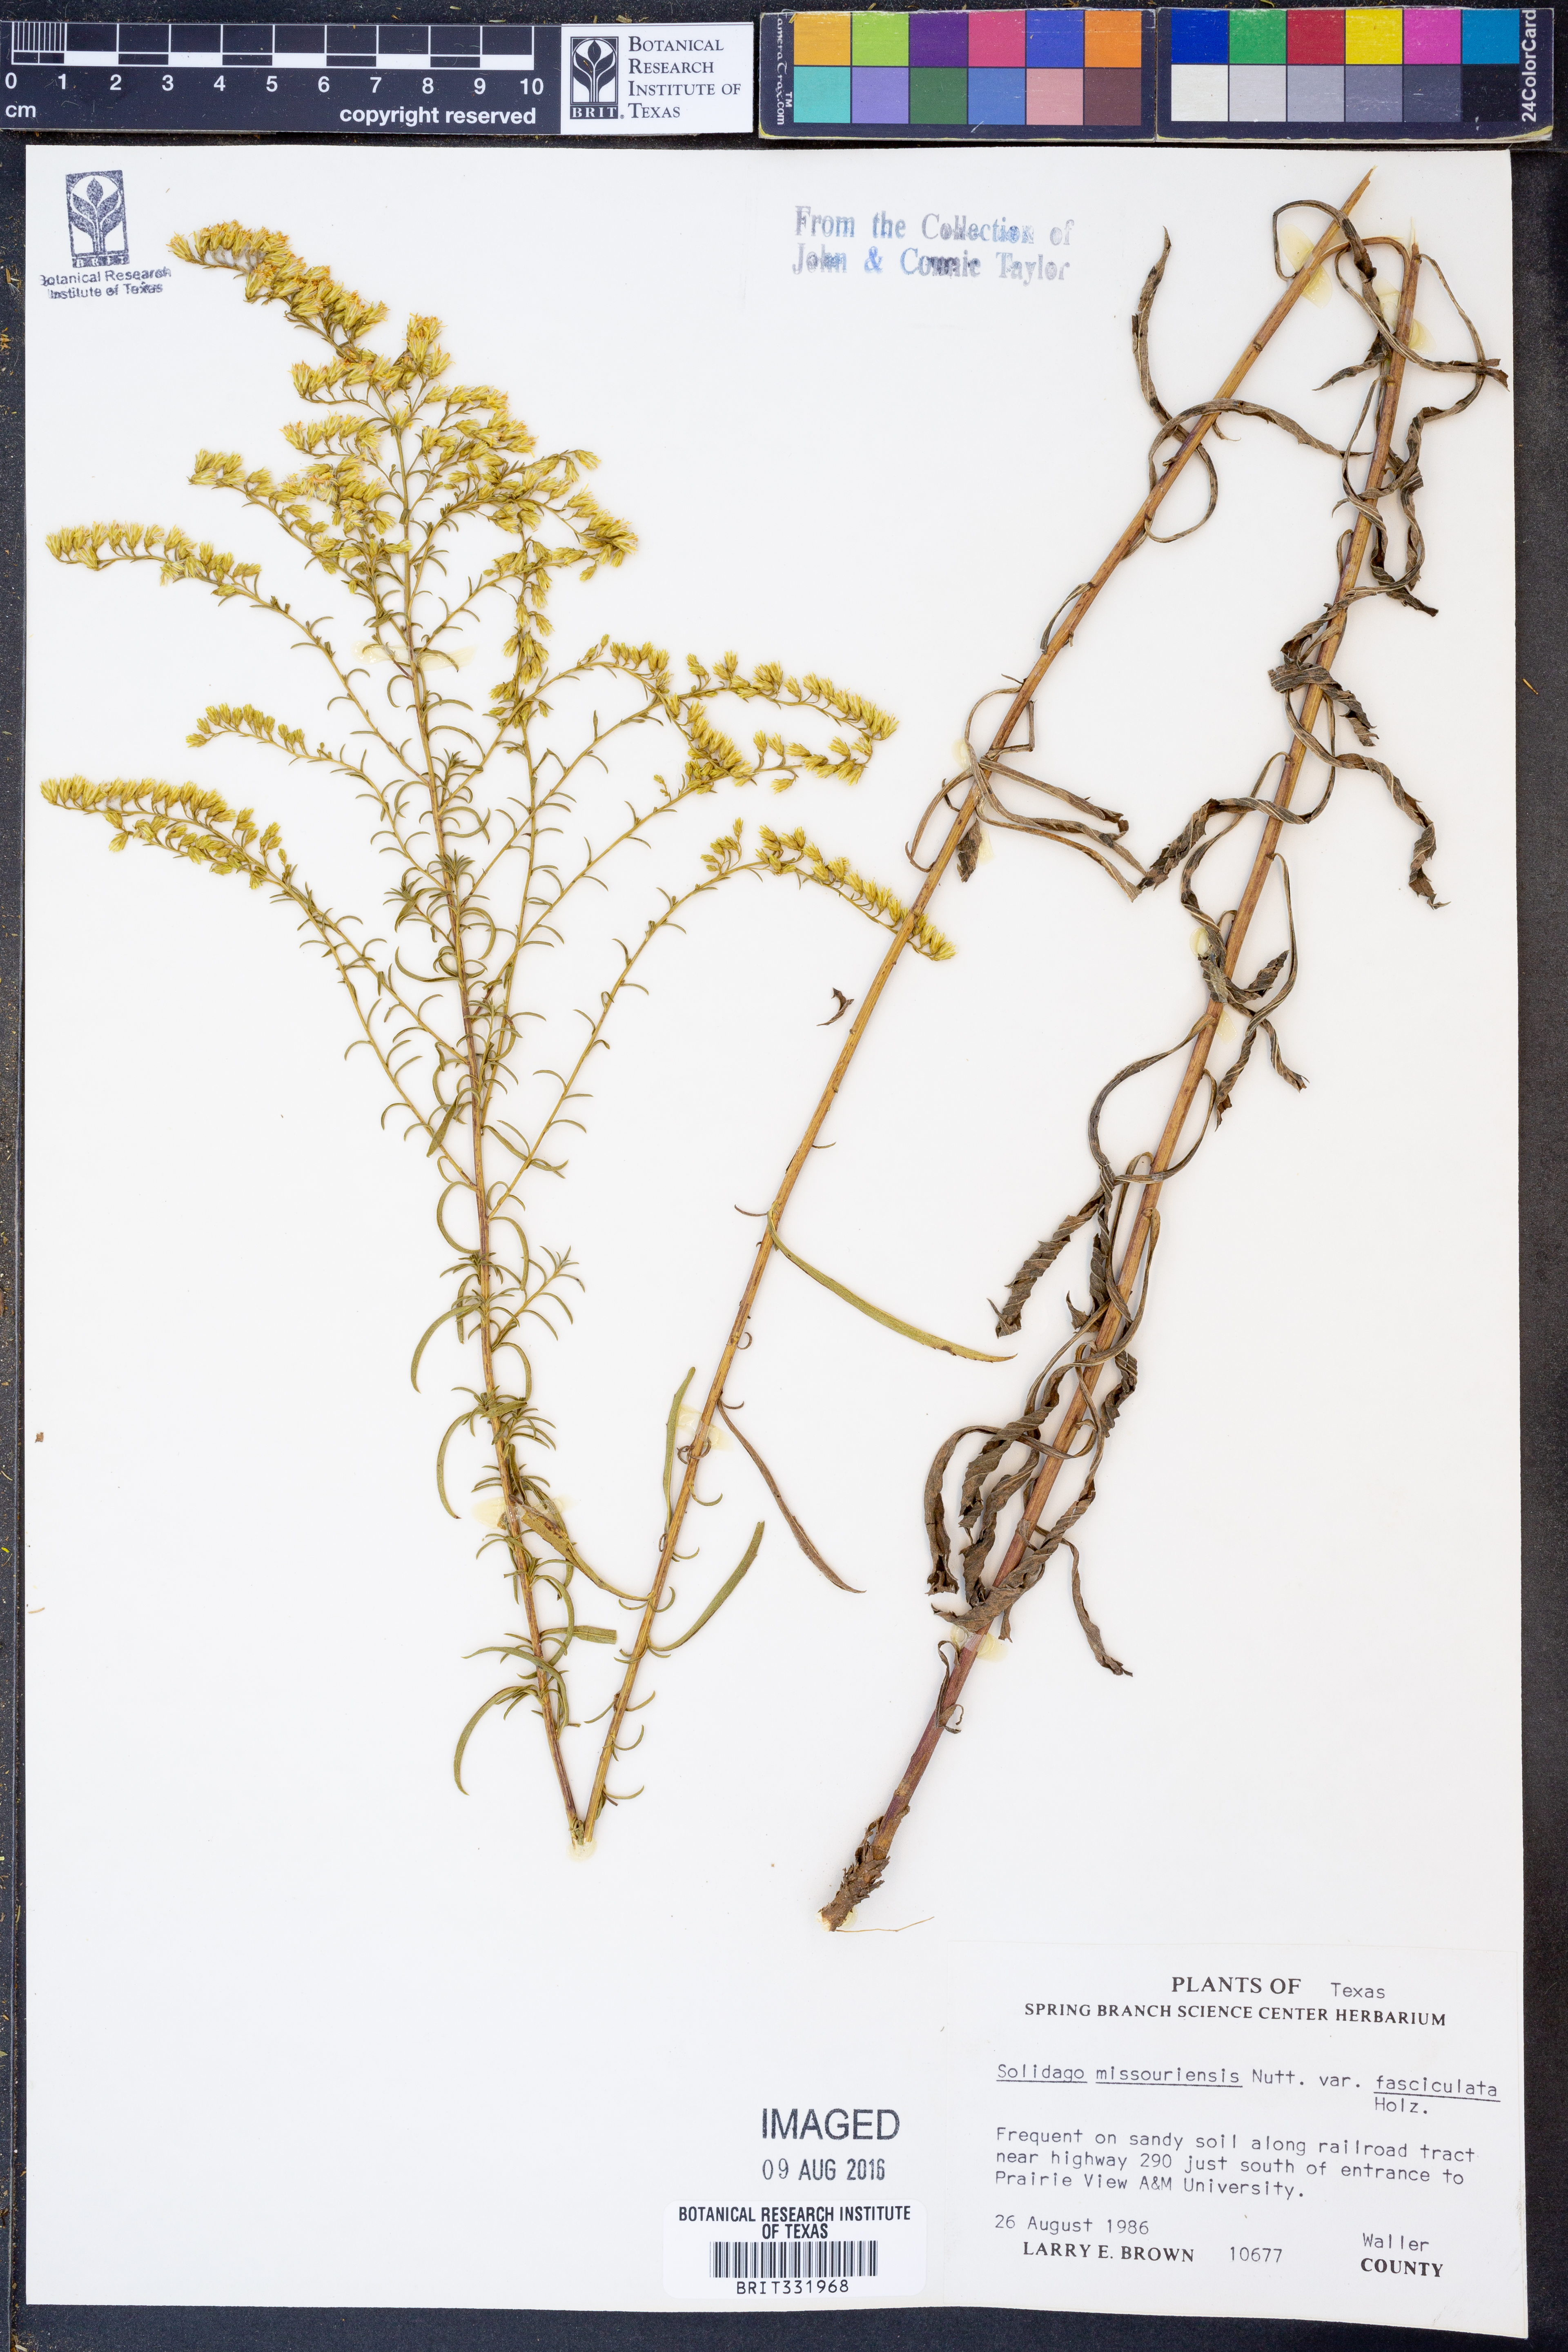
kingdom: Plantae
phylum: Tracheophyta
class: Magnoliopsida
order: Asterales
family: Asteraceae
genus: Solidago
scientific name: Solidago missouriensis
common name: Prairie goldenrod
